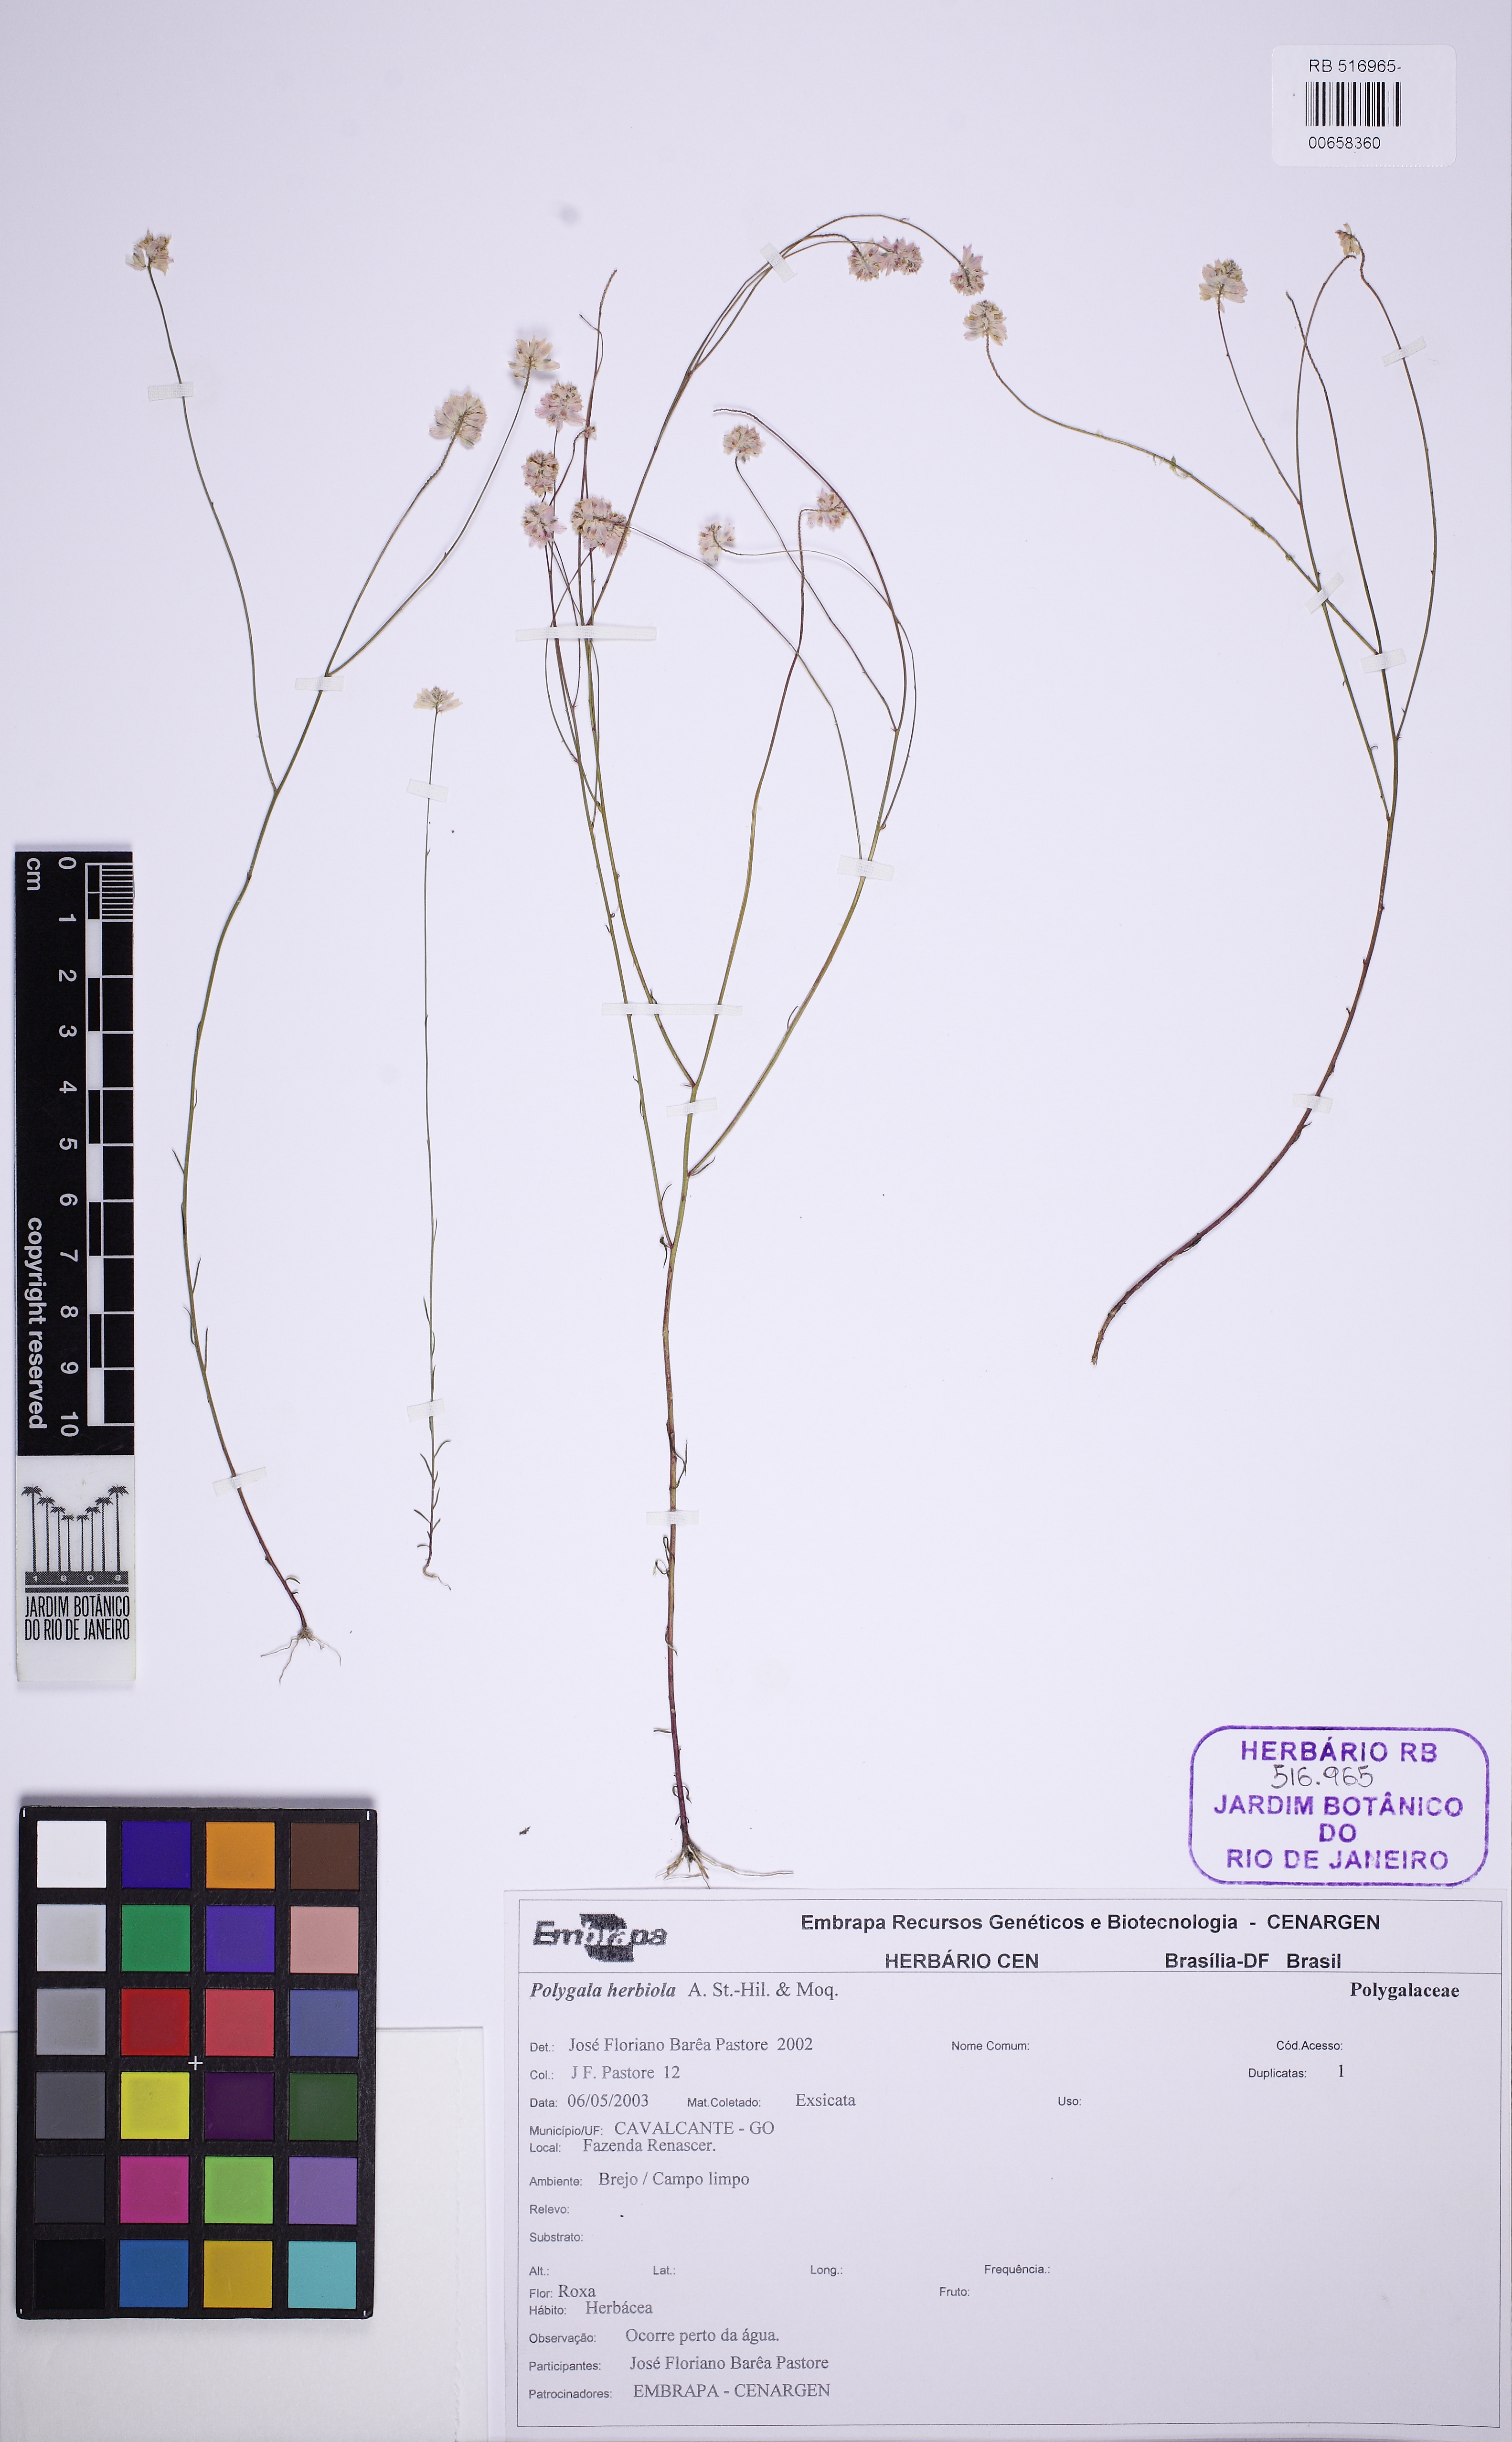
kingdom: Plantae
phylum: Tracheophyta
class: Magnoliopsida
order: Fabales
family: Polygalaceae
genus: Polygala
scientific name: Polygala herbiola
